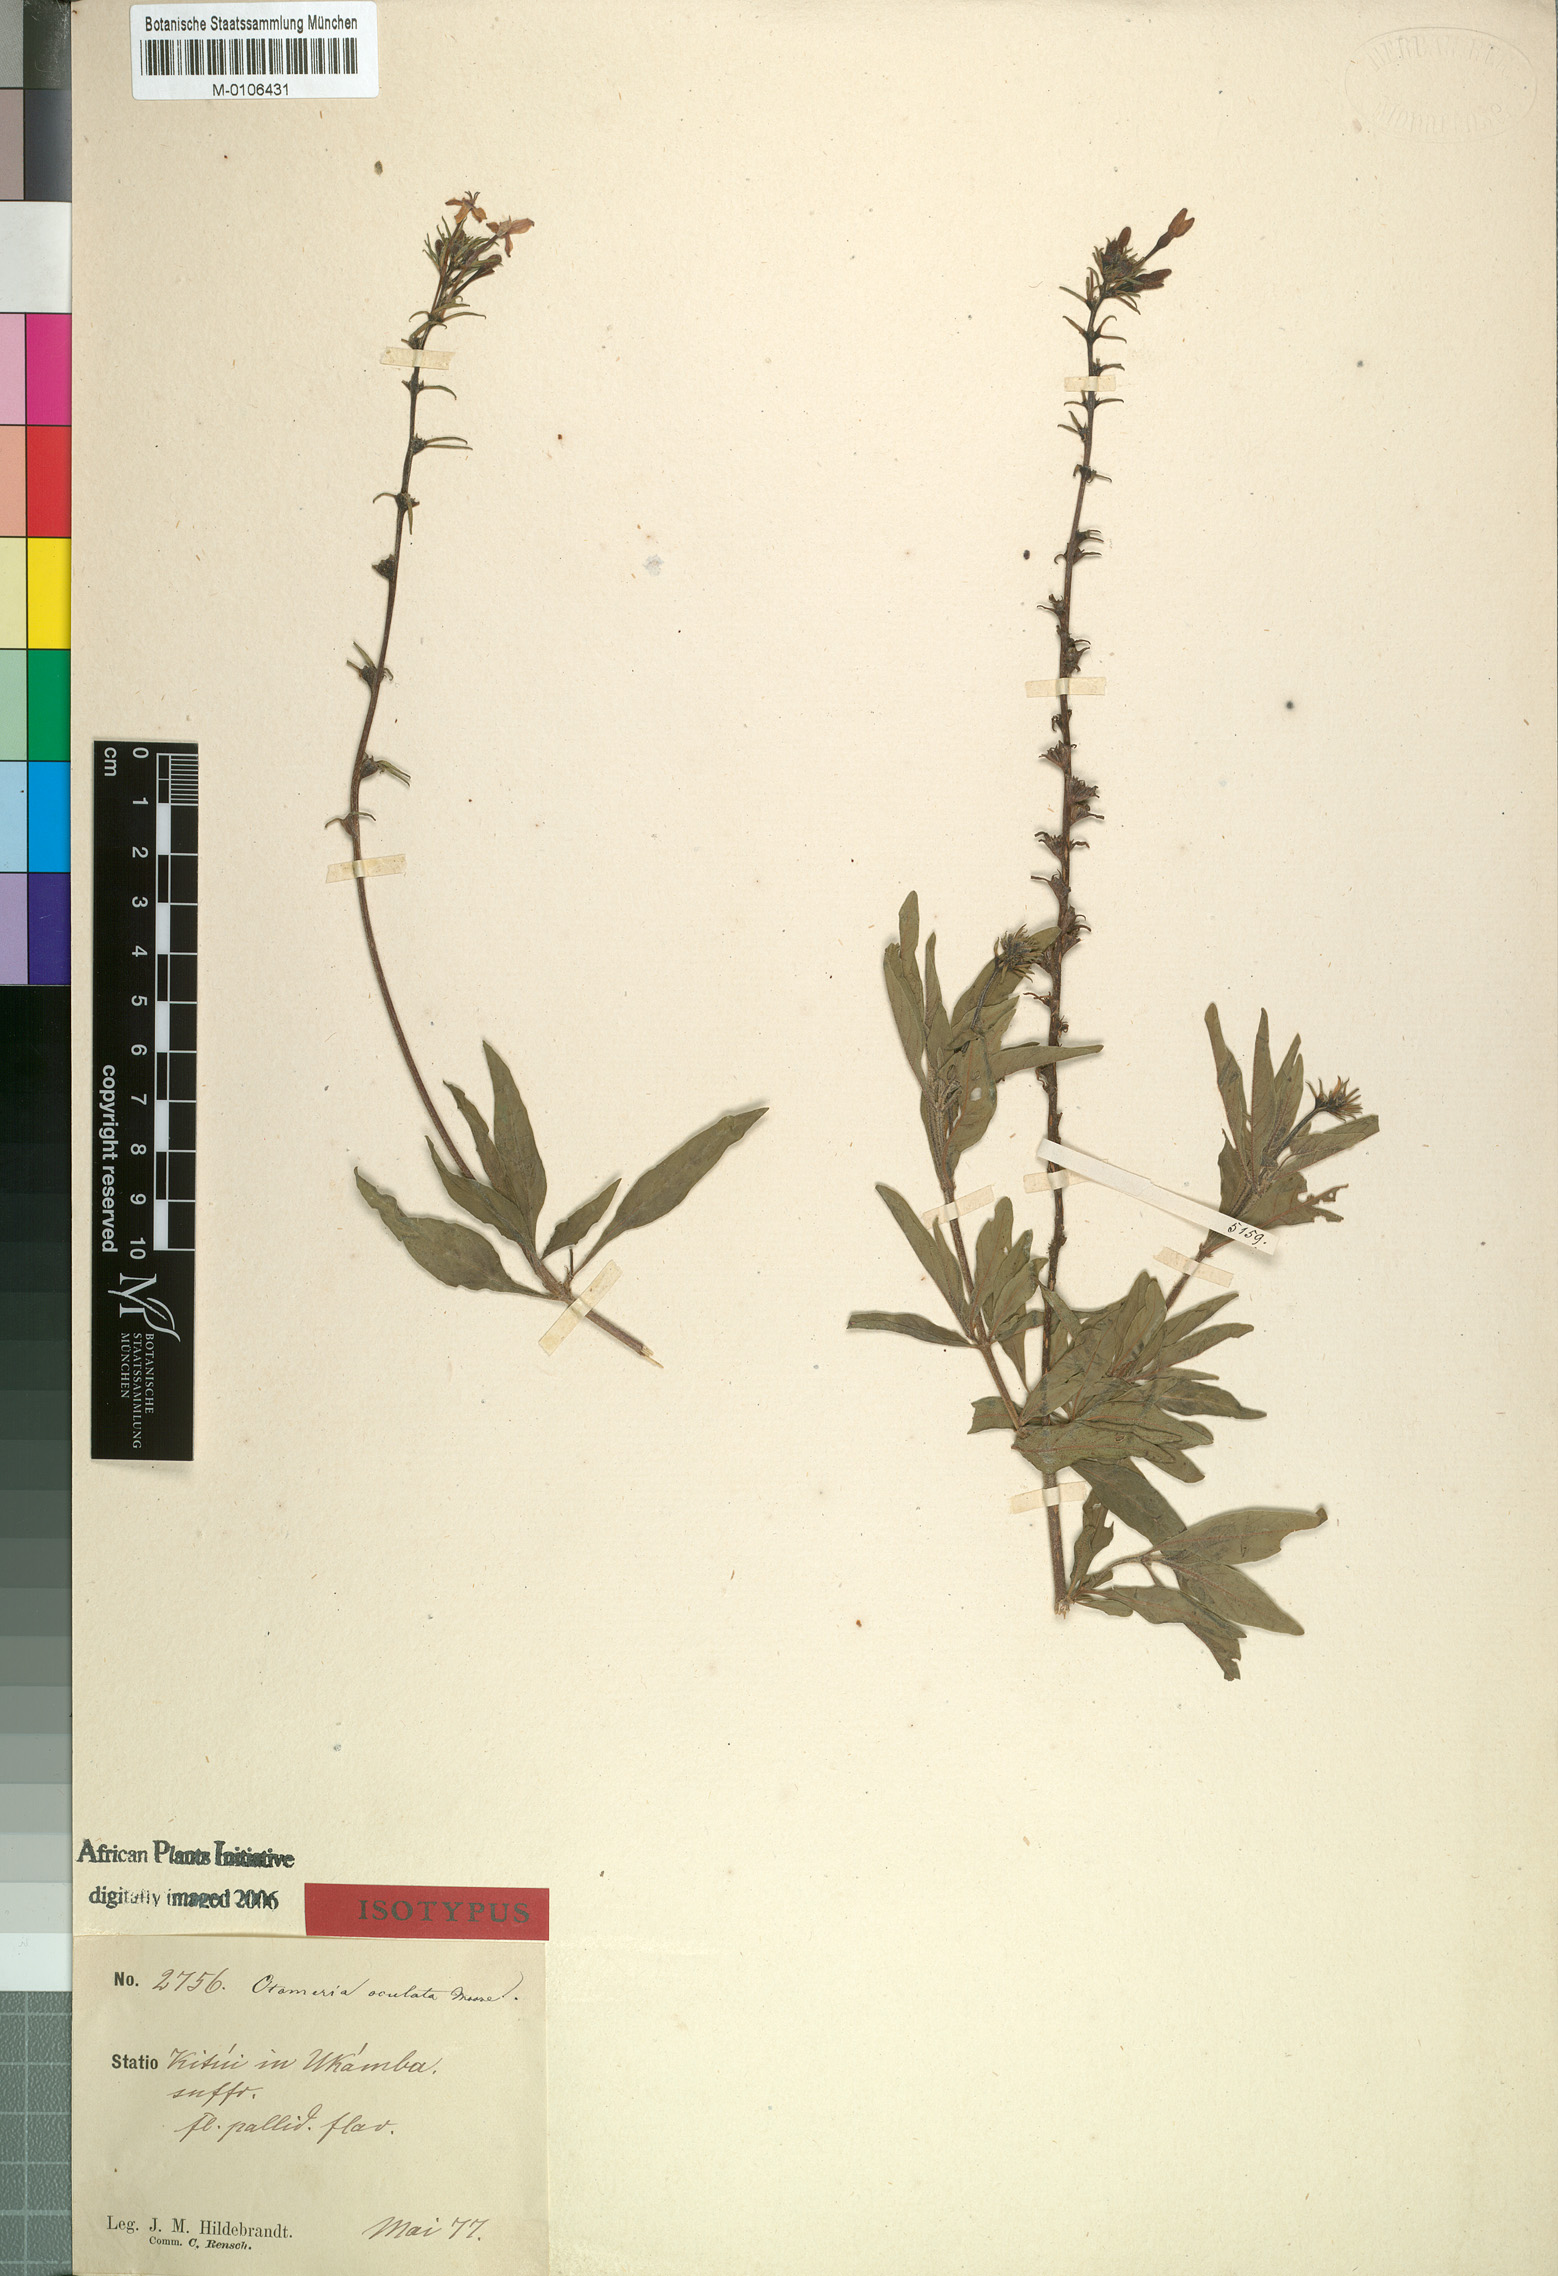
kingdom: Plantae
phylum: Tracheophyta
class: Magnoliopsida
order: Gentianales
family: Rubiaceae
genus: Otomeria
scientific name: Otomeria oculata
